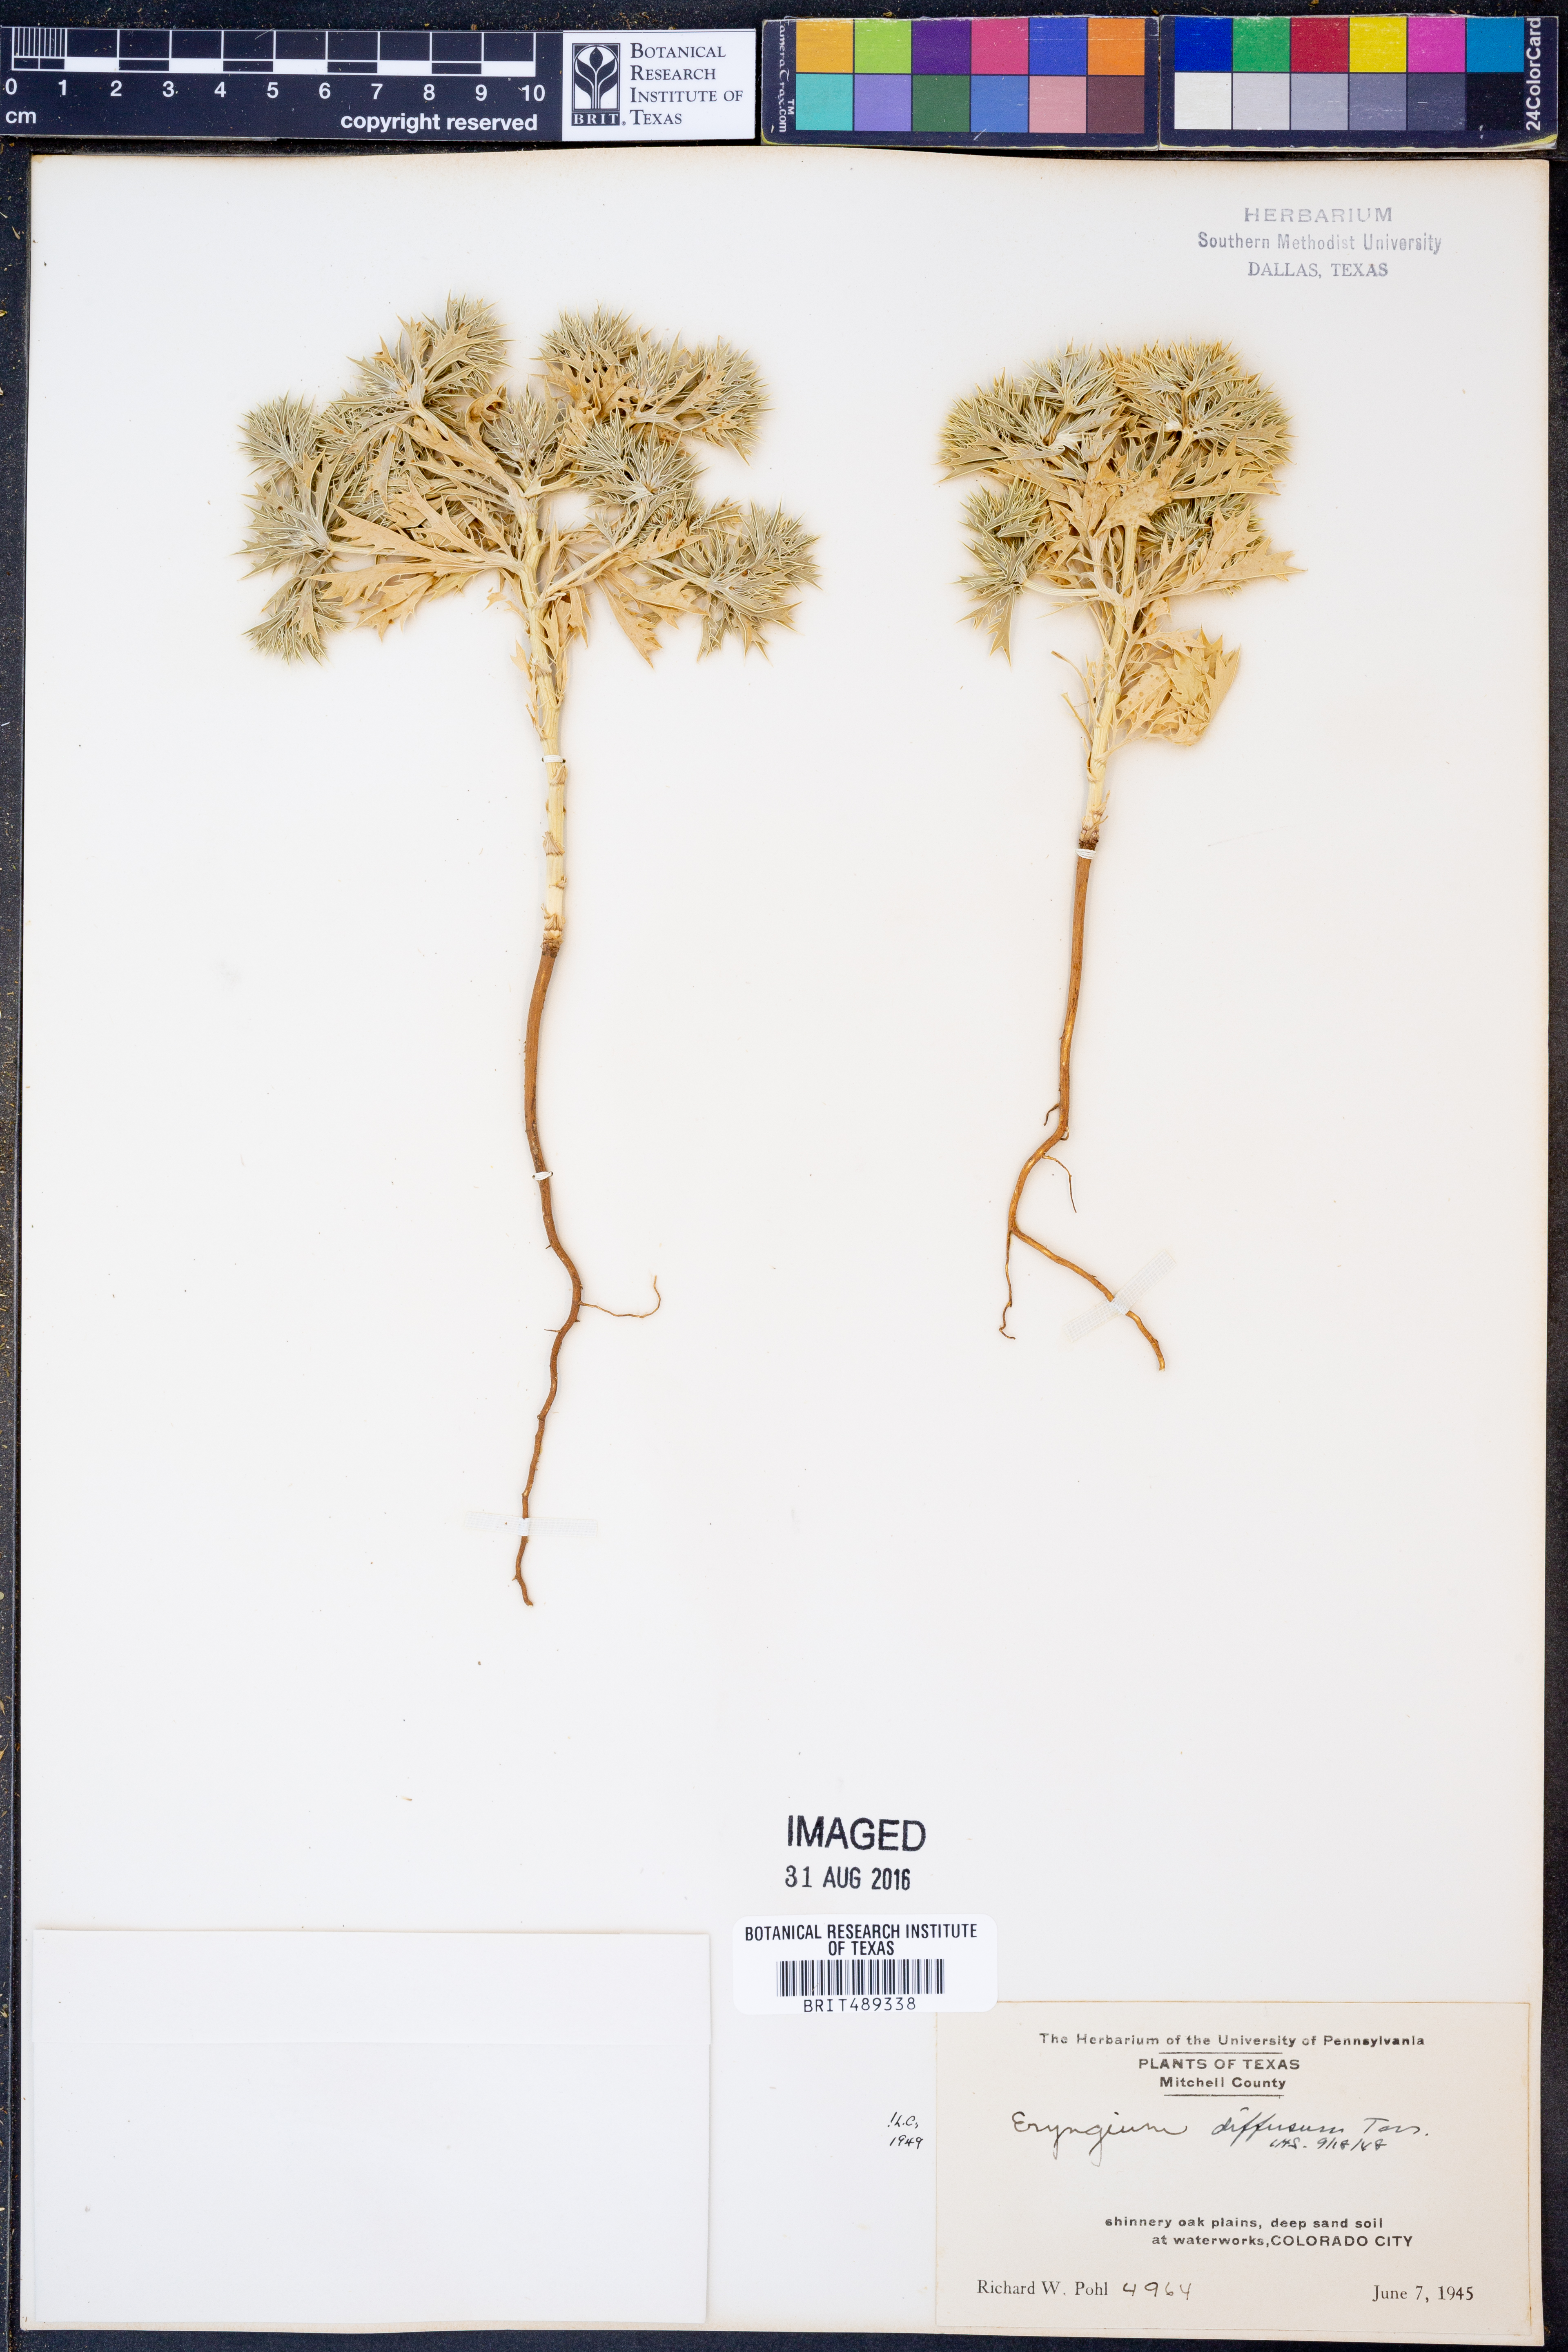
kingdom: Plantae
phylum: Tracheophyta
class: Magnoliopsida
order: Apiales
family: Apiaceae
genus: Eryngium
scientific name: Eryngium diffusum
